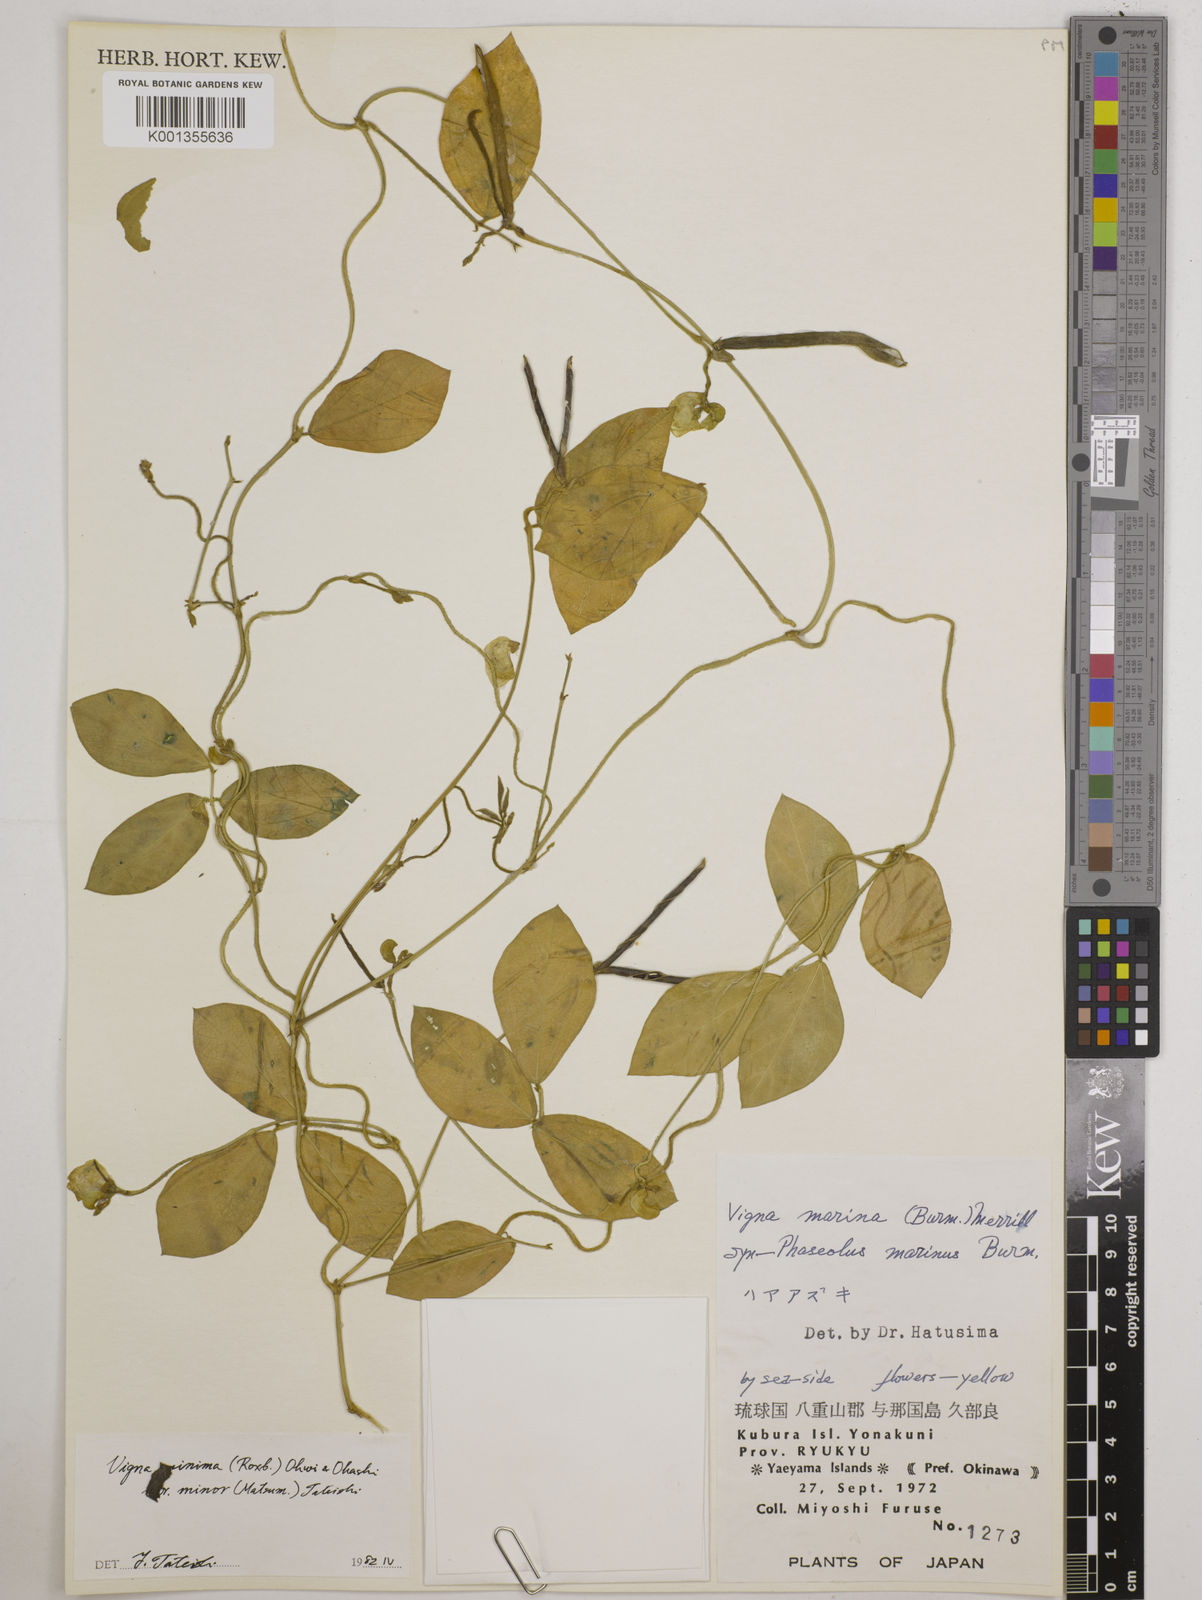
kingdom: Plantae
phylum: Tracheophyta
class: Magnoliopsida
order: Fabales
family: Fabaceae
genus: Vigna
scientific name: Vigna minima
